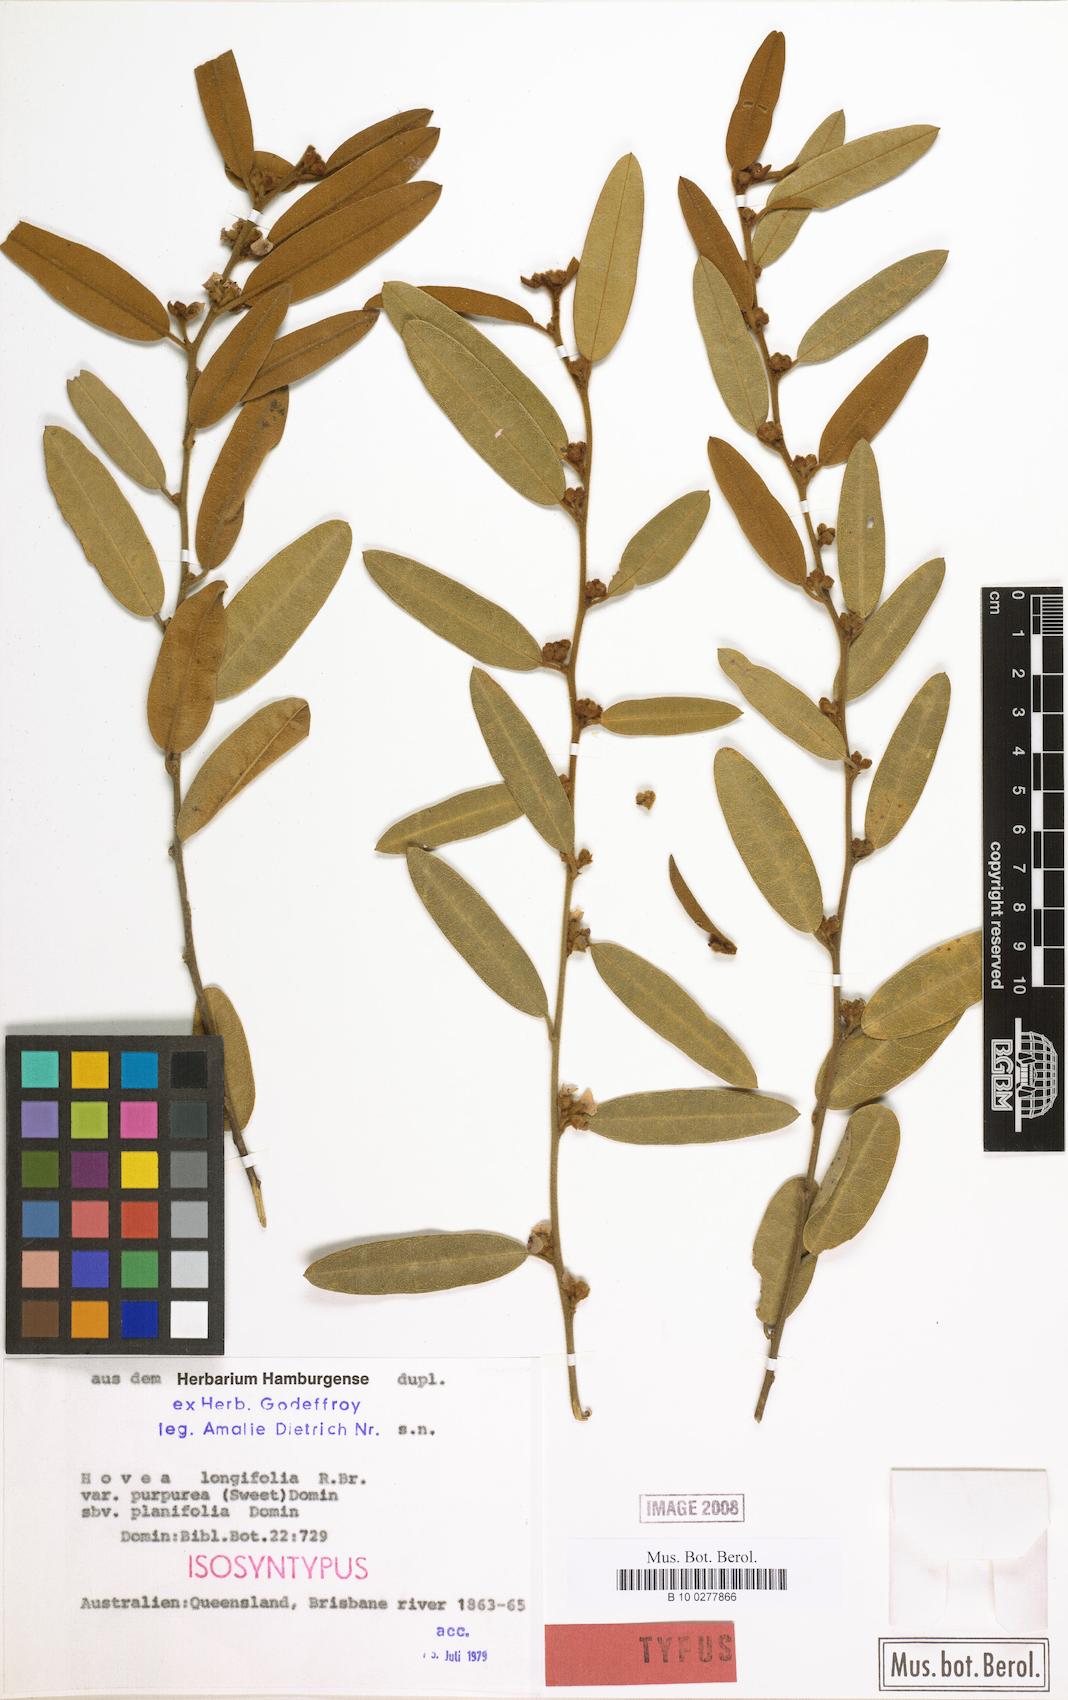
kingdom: Plantae
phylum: Tracheophyta
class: Magnoliopsida
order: Fabales
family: Fabaceae
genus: Hovea
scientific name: Hovea longifolia
